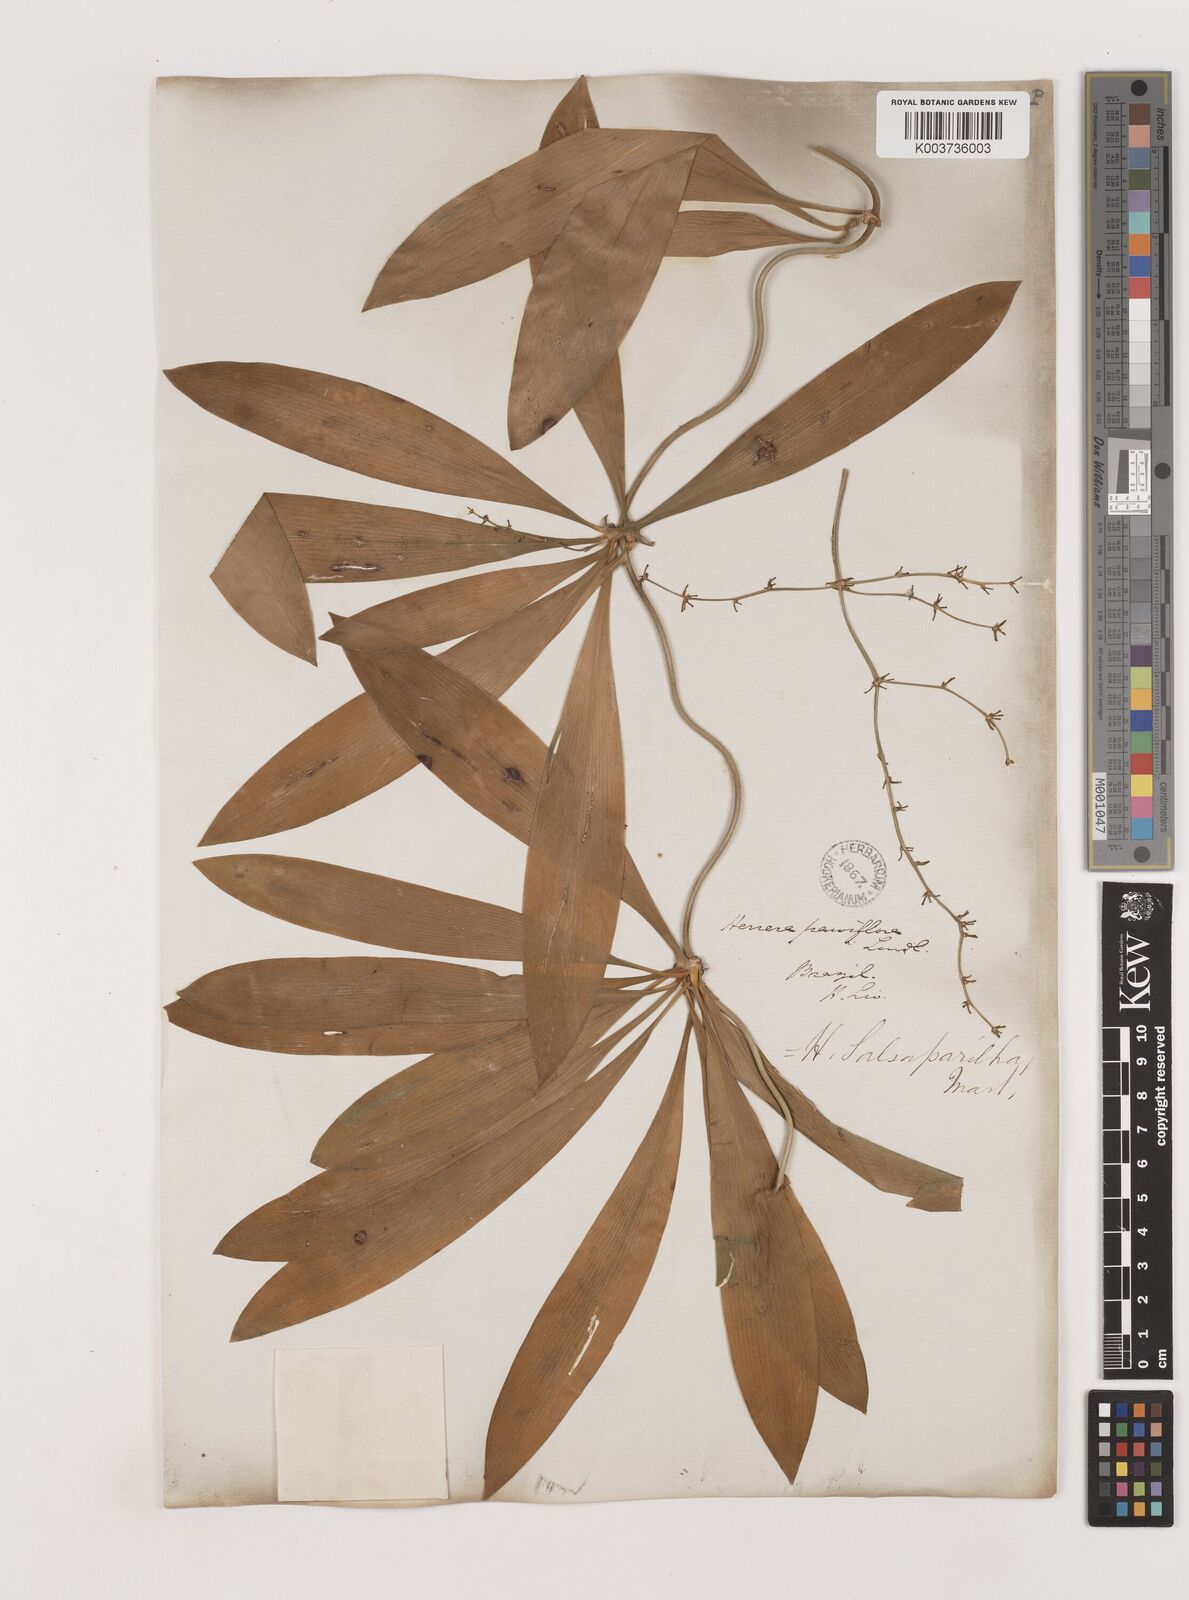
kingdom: Plantae
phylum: Tracheophyta
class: Liliopsida
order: Asparagales
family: Asparagaceae
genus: Herreria
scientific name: Herreria salsaparilha
